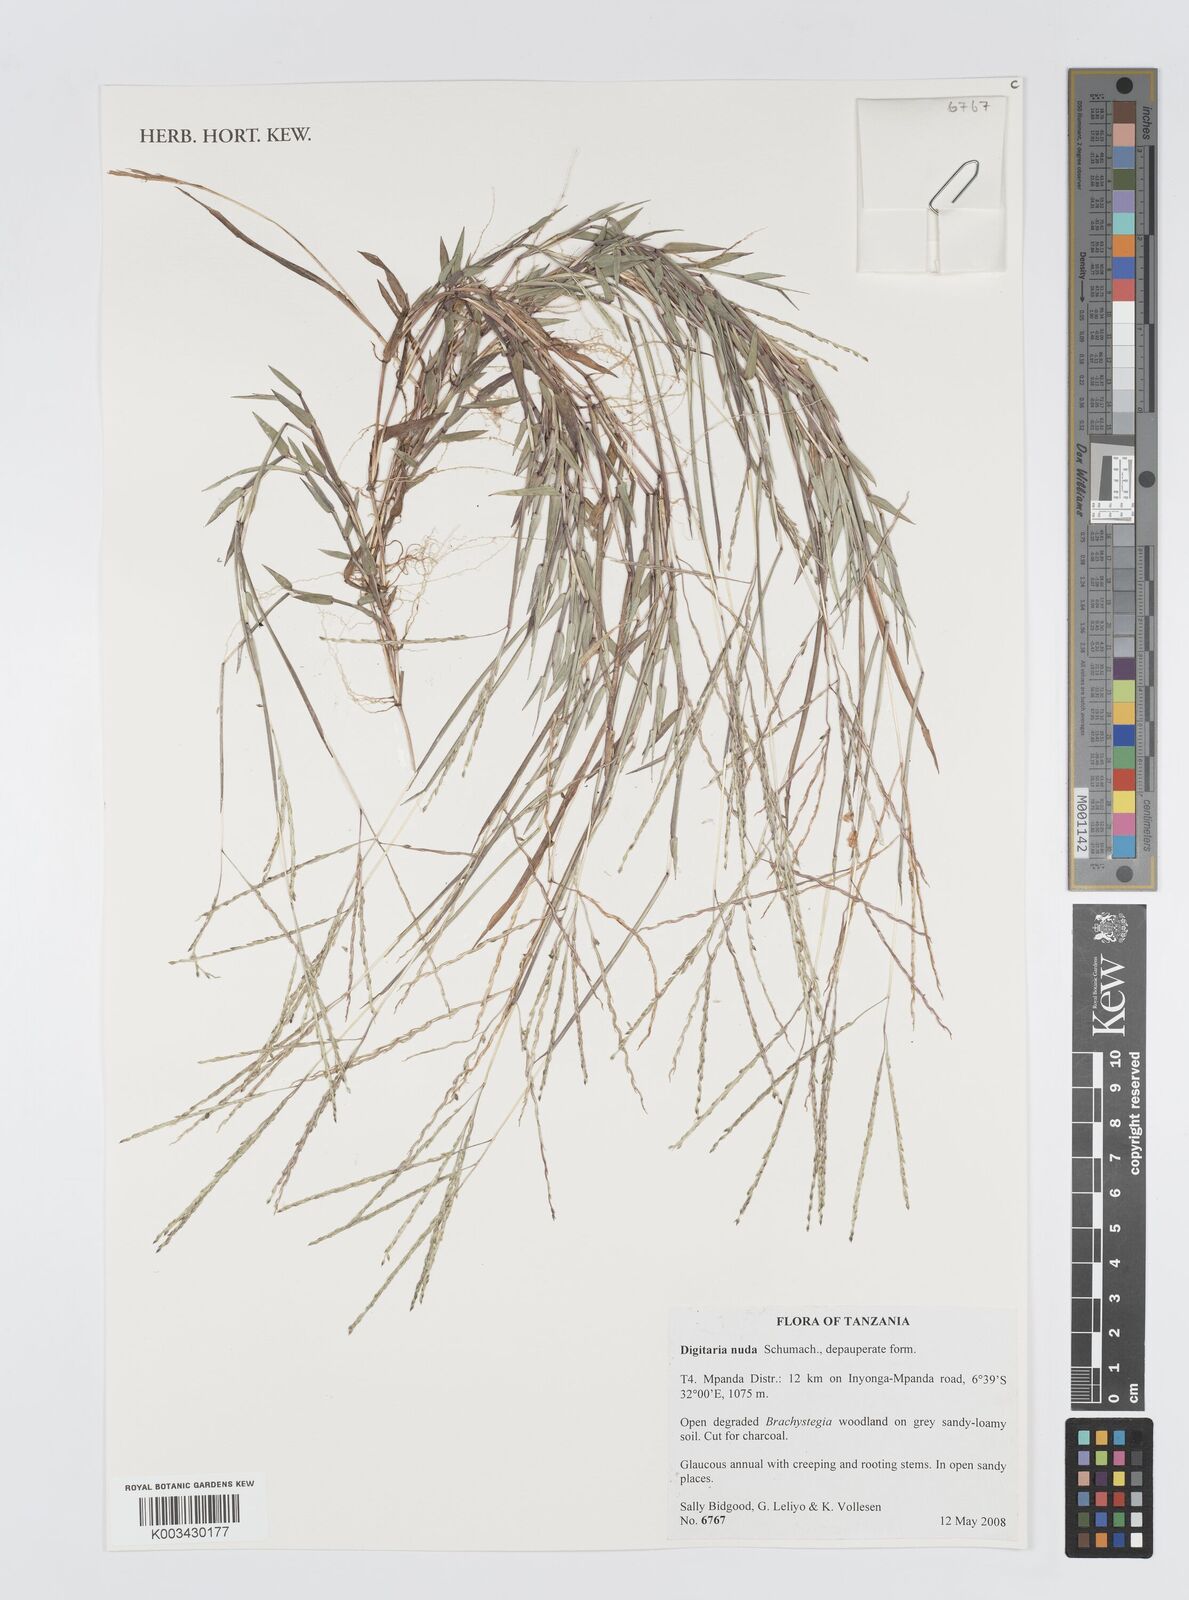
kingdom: Plantae
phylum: Tracheophyta
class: Liliopsida
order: Poales
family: Poaceae
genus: Digitaria
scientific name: Digitaria nuda
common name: Naked crabgrass
